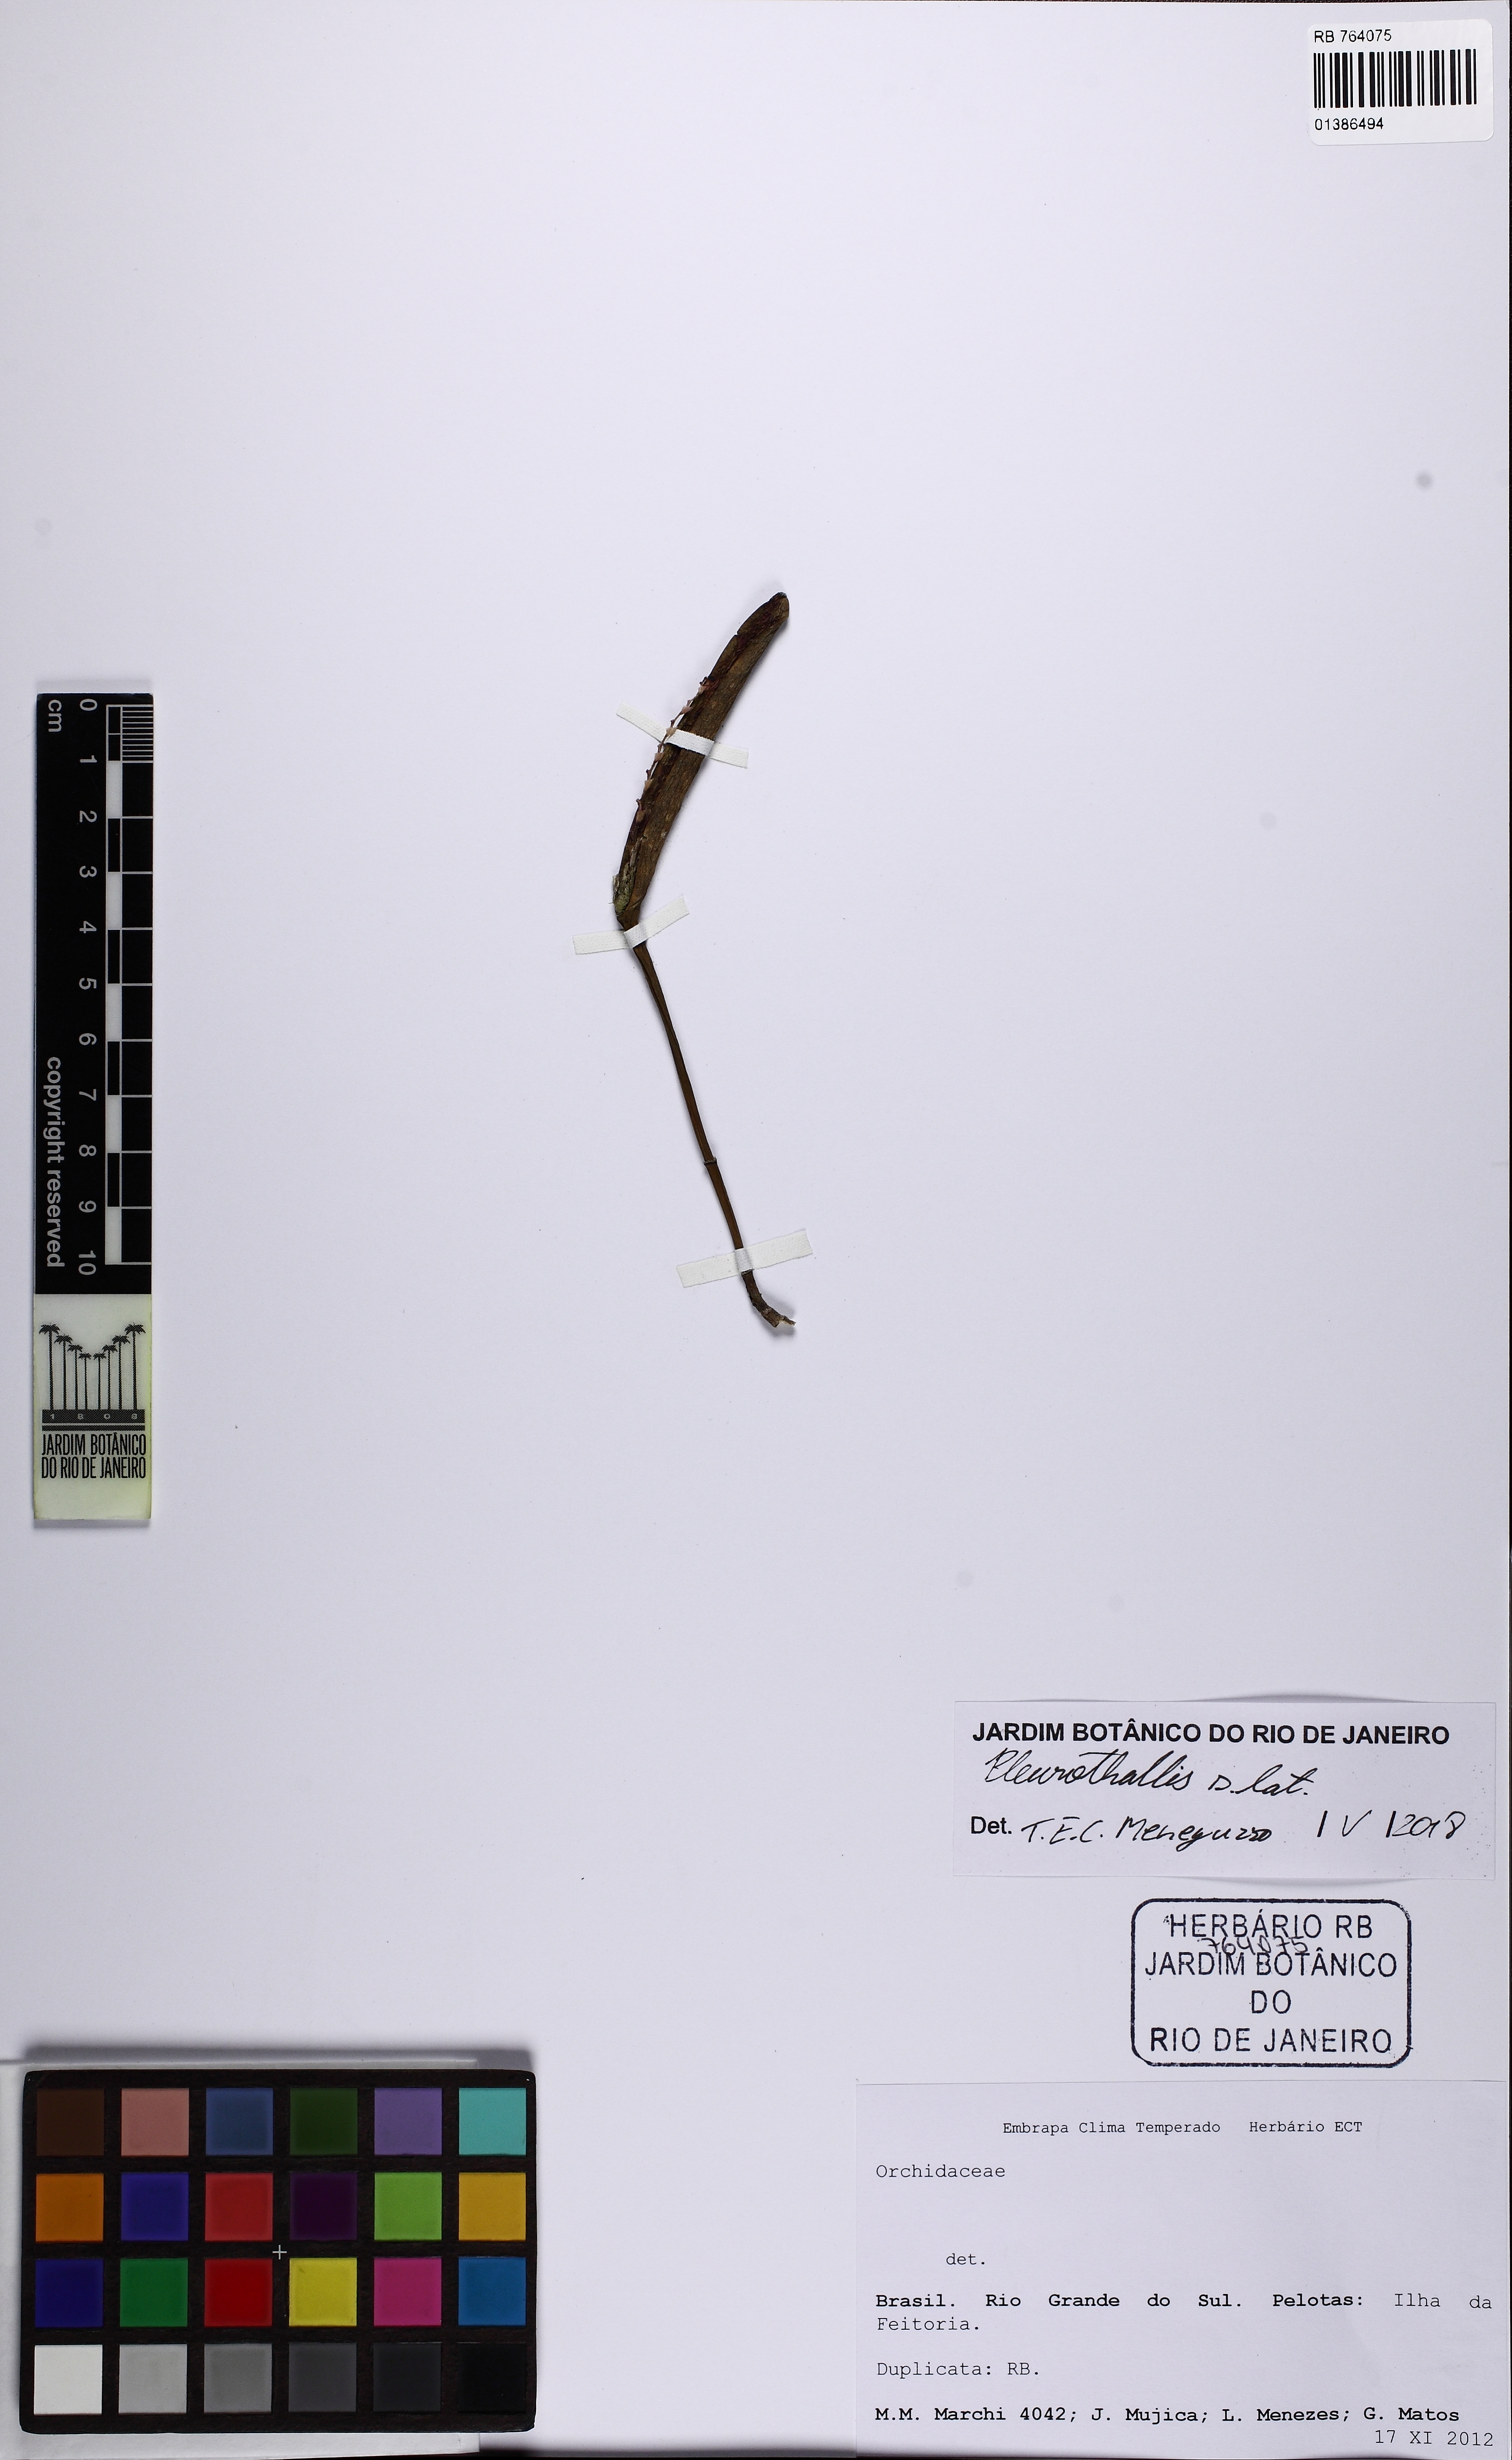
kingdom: Plantae
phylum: Tracheophyta
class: Liliopsida
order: Asparagales
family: Orchidaceae
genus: Acianthera
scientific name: Acianthera
